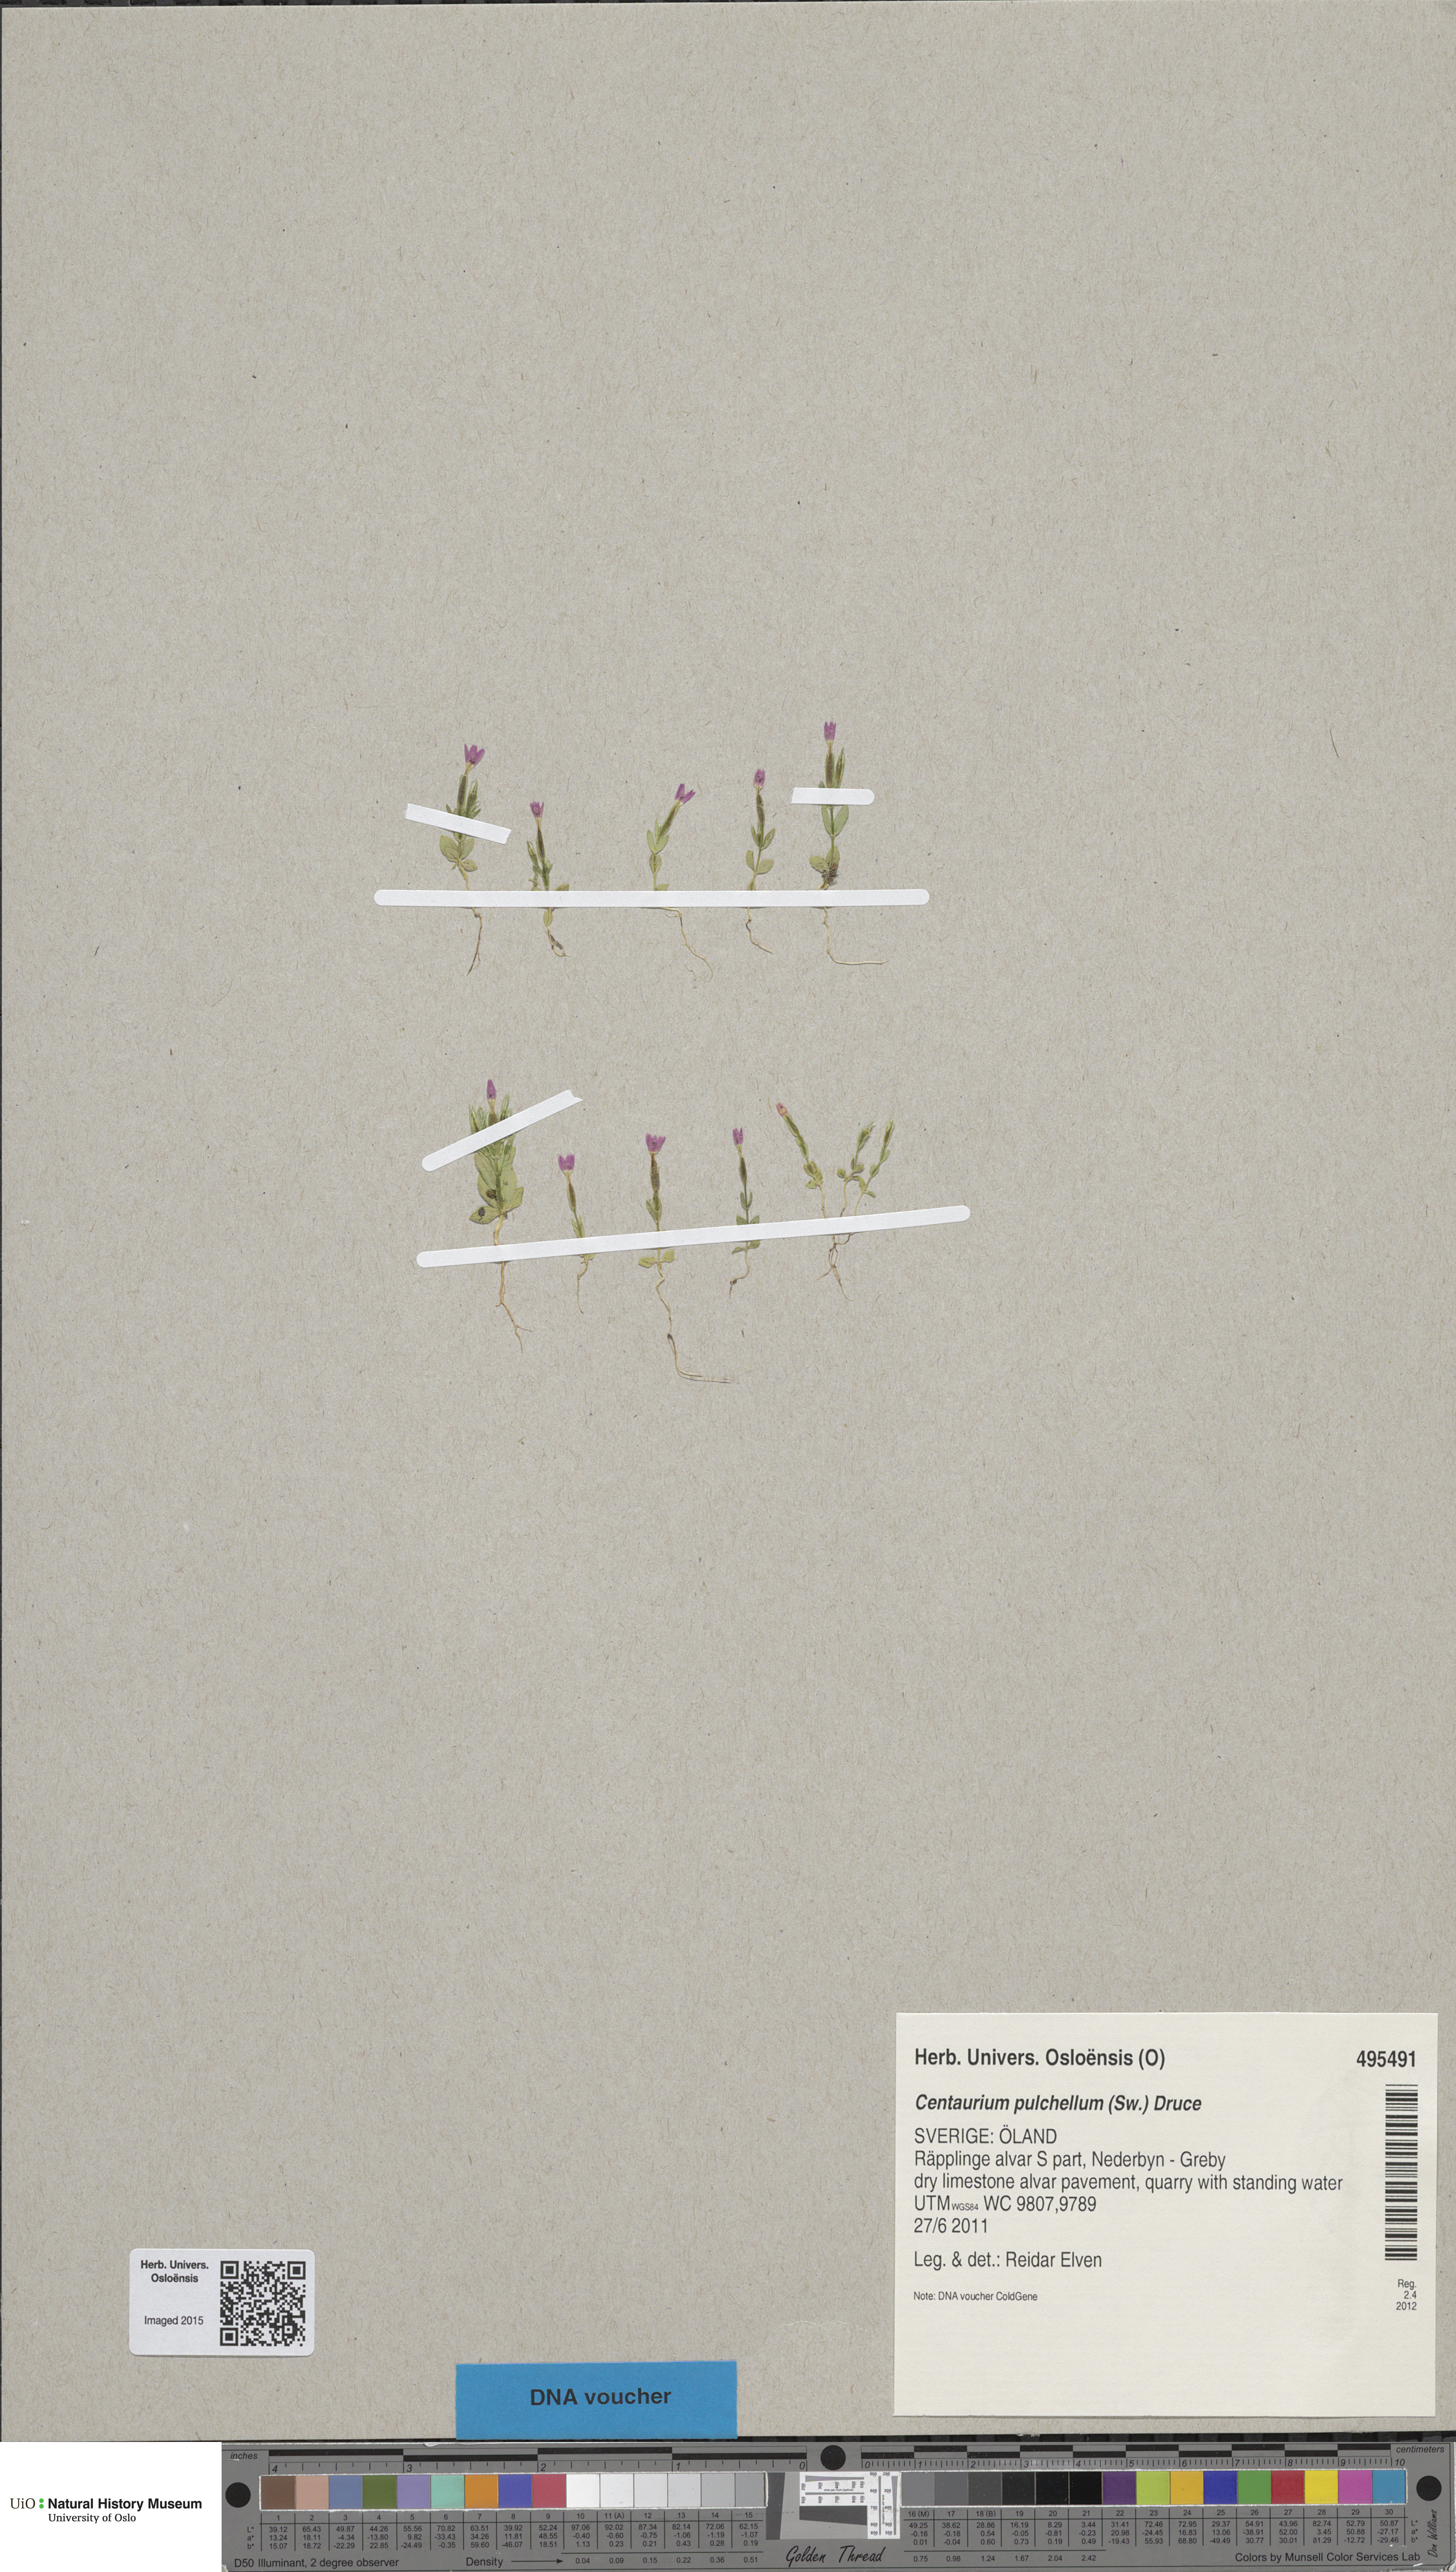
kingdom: Plantae
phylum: Tracheophyta
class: Magnoliopsida
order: Gentianales
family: Gentianaceae
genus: Centaurium
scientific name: Centaurium pulchellum
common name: Lesser centaury
